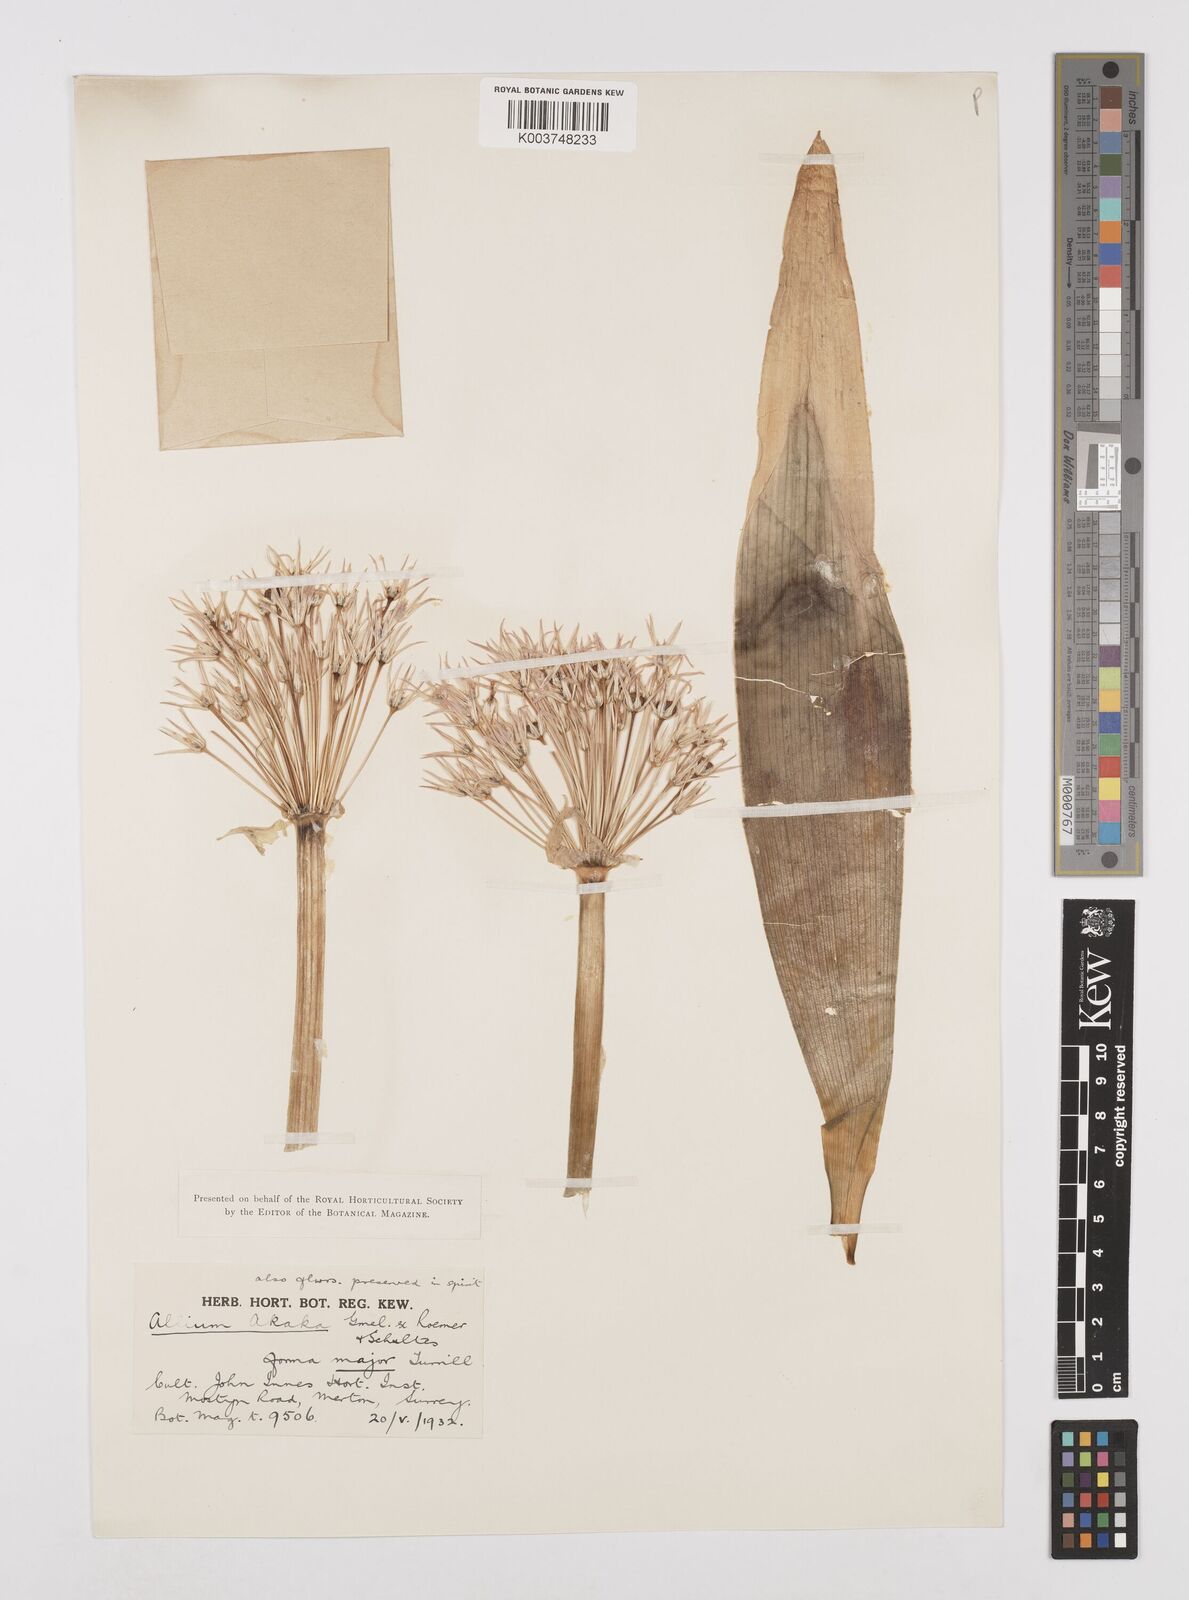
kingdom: Plantae
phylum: Tracheophyta
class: Liliopsida
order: Asparagales
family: Amaryllidaceae
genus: Allium
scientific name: Allium akaka
